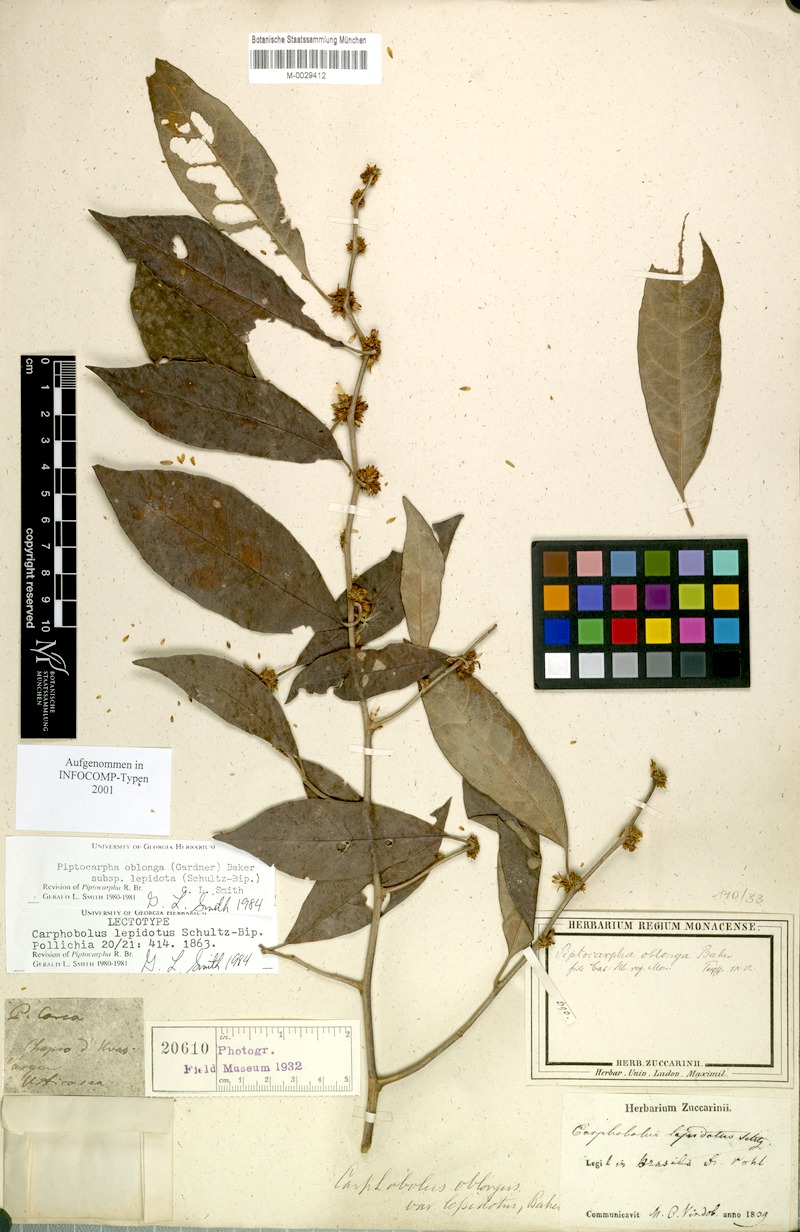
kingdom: Plantae
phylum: Tracheophyta
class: Magnoliopsida
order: Asterales
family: Asteraceae
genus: Piptocarpha
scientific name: Piptocarpha oblonga
